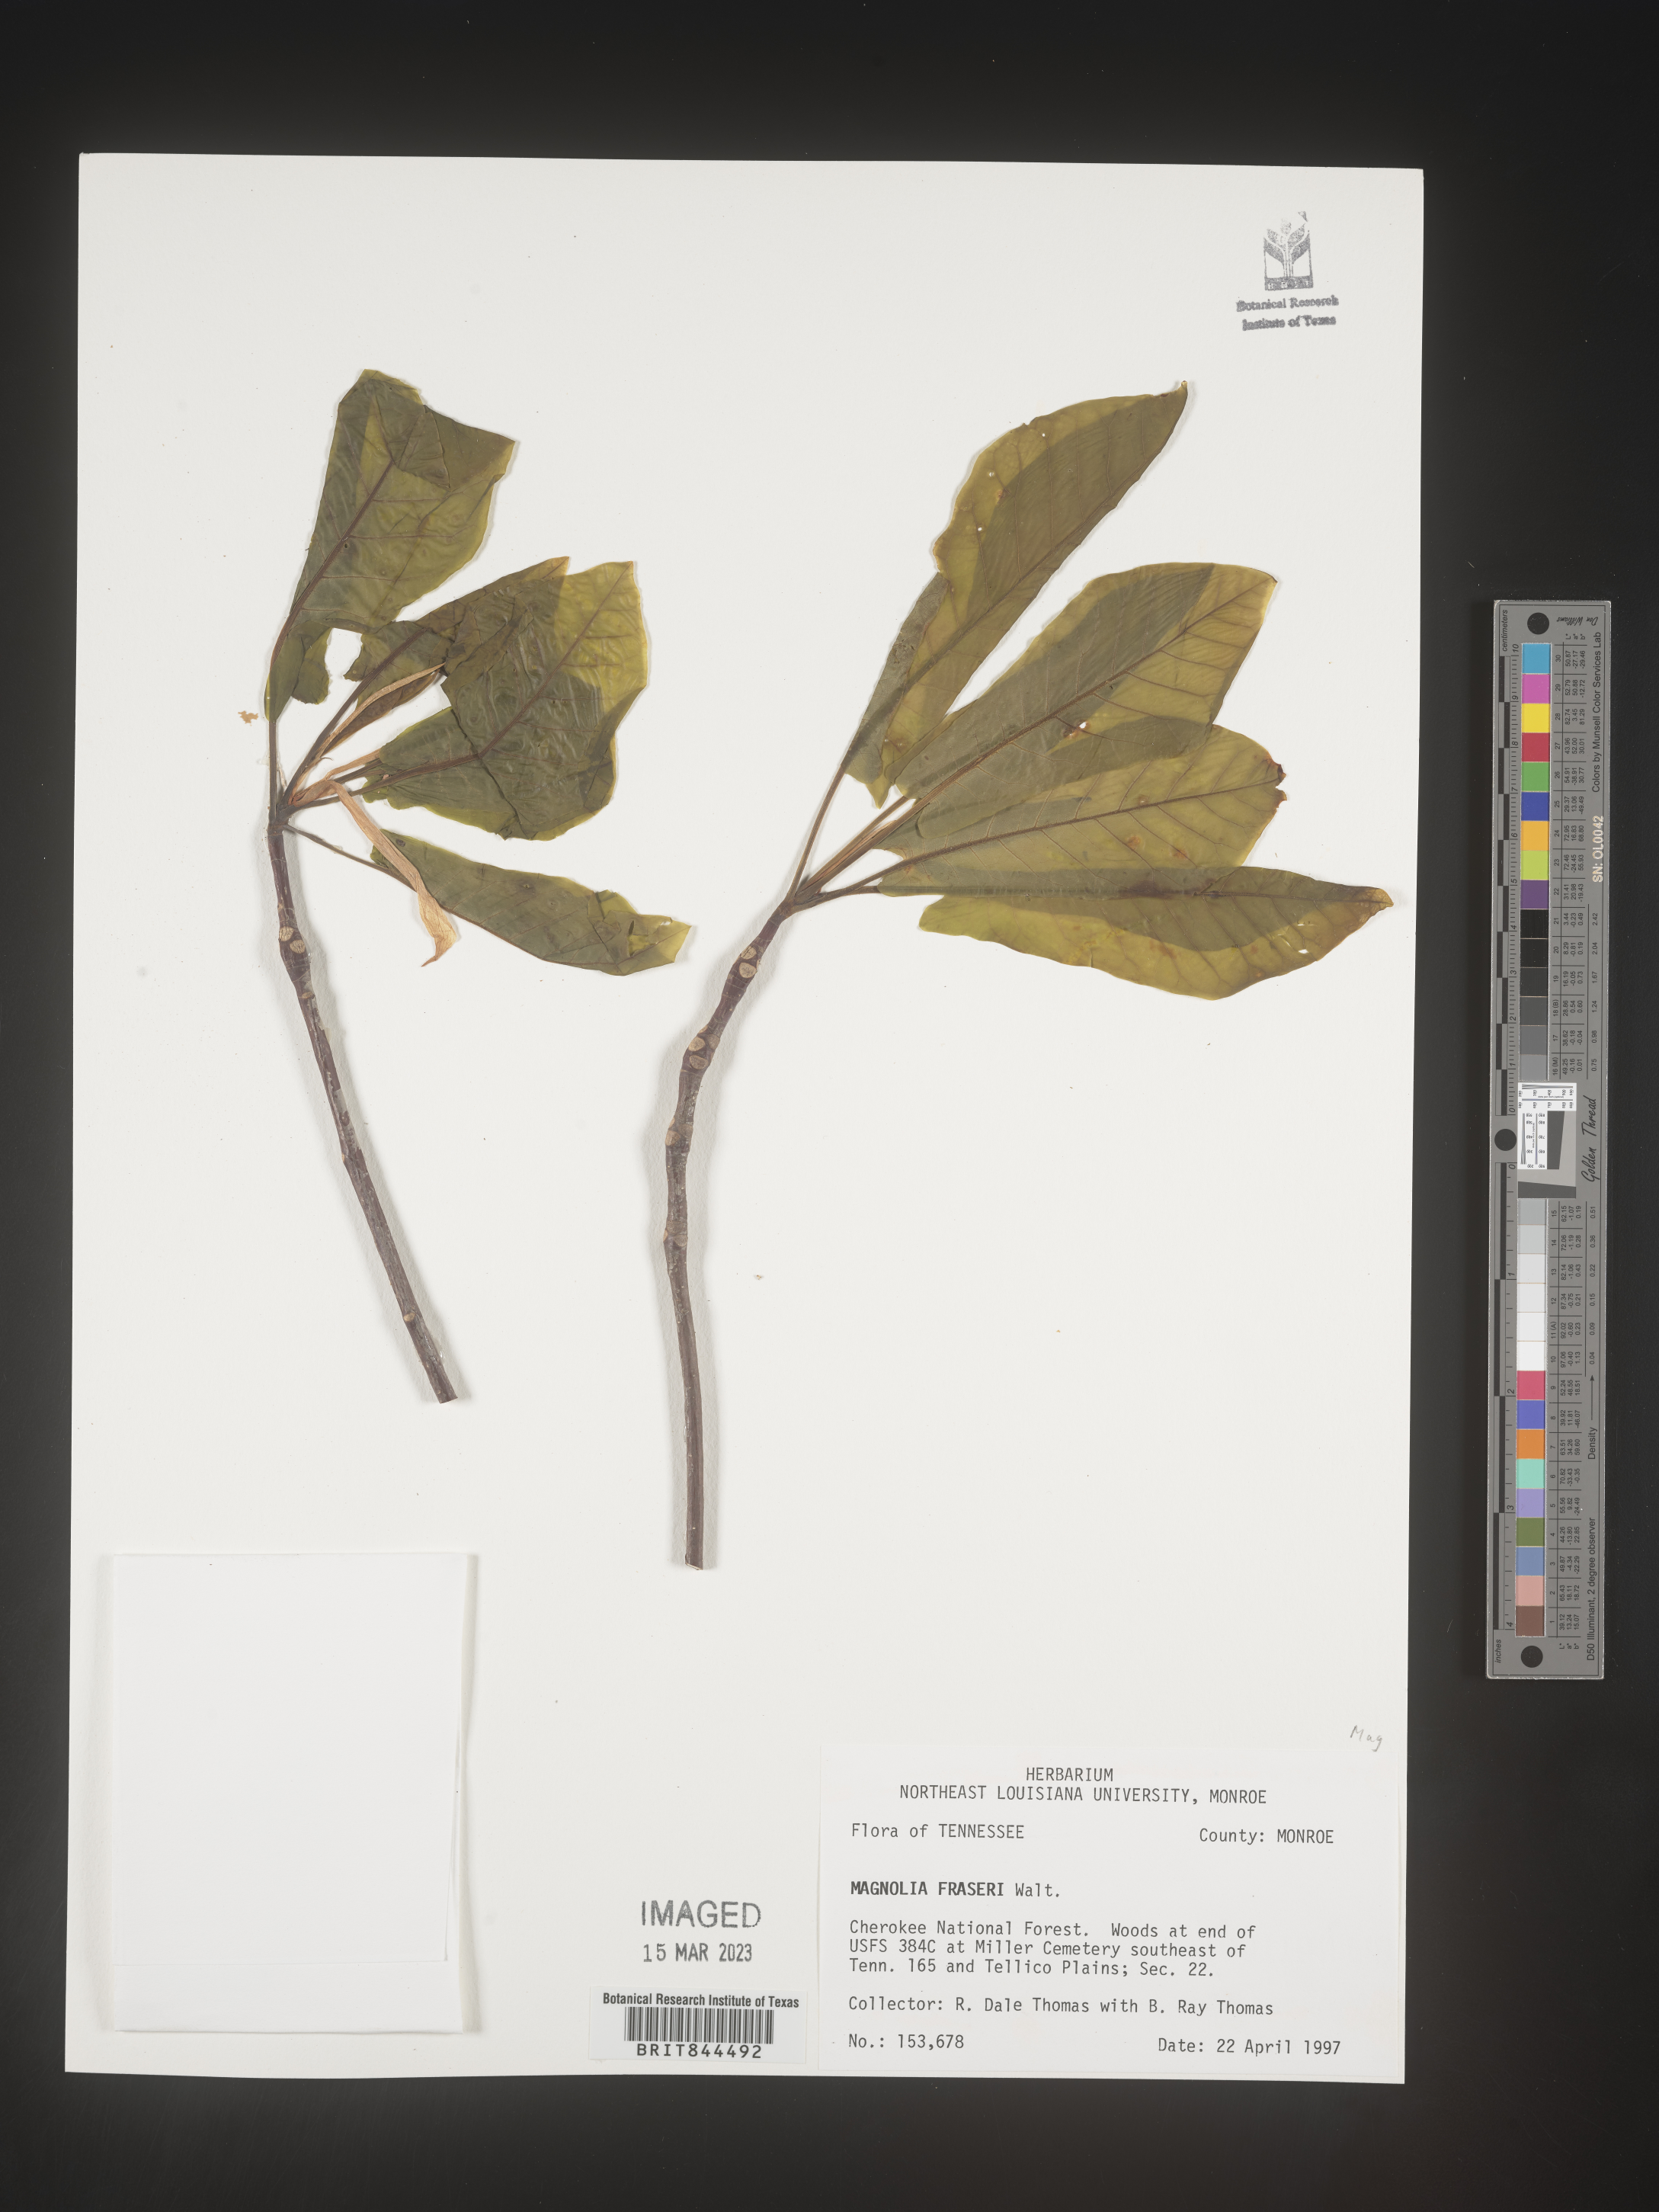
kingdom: Plantae
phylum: Tracheophyta
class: Magnoliopsida
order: Magnoliales
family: Magnoliaceae
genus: Magnolia
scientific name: Magnolia
